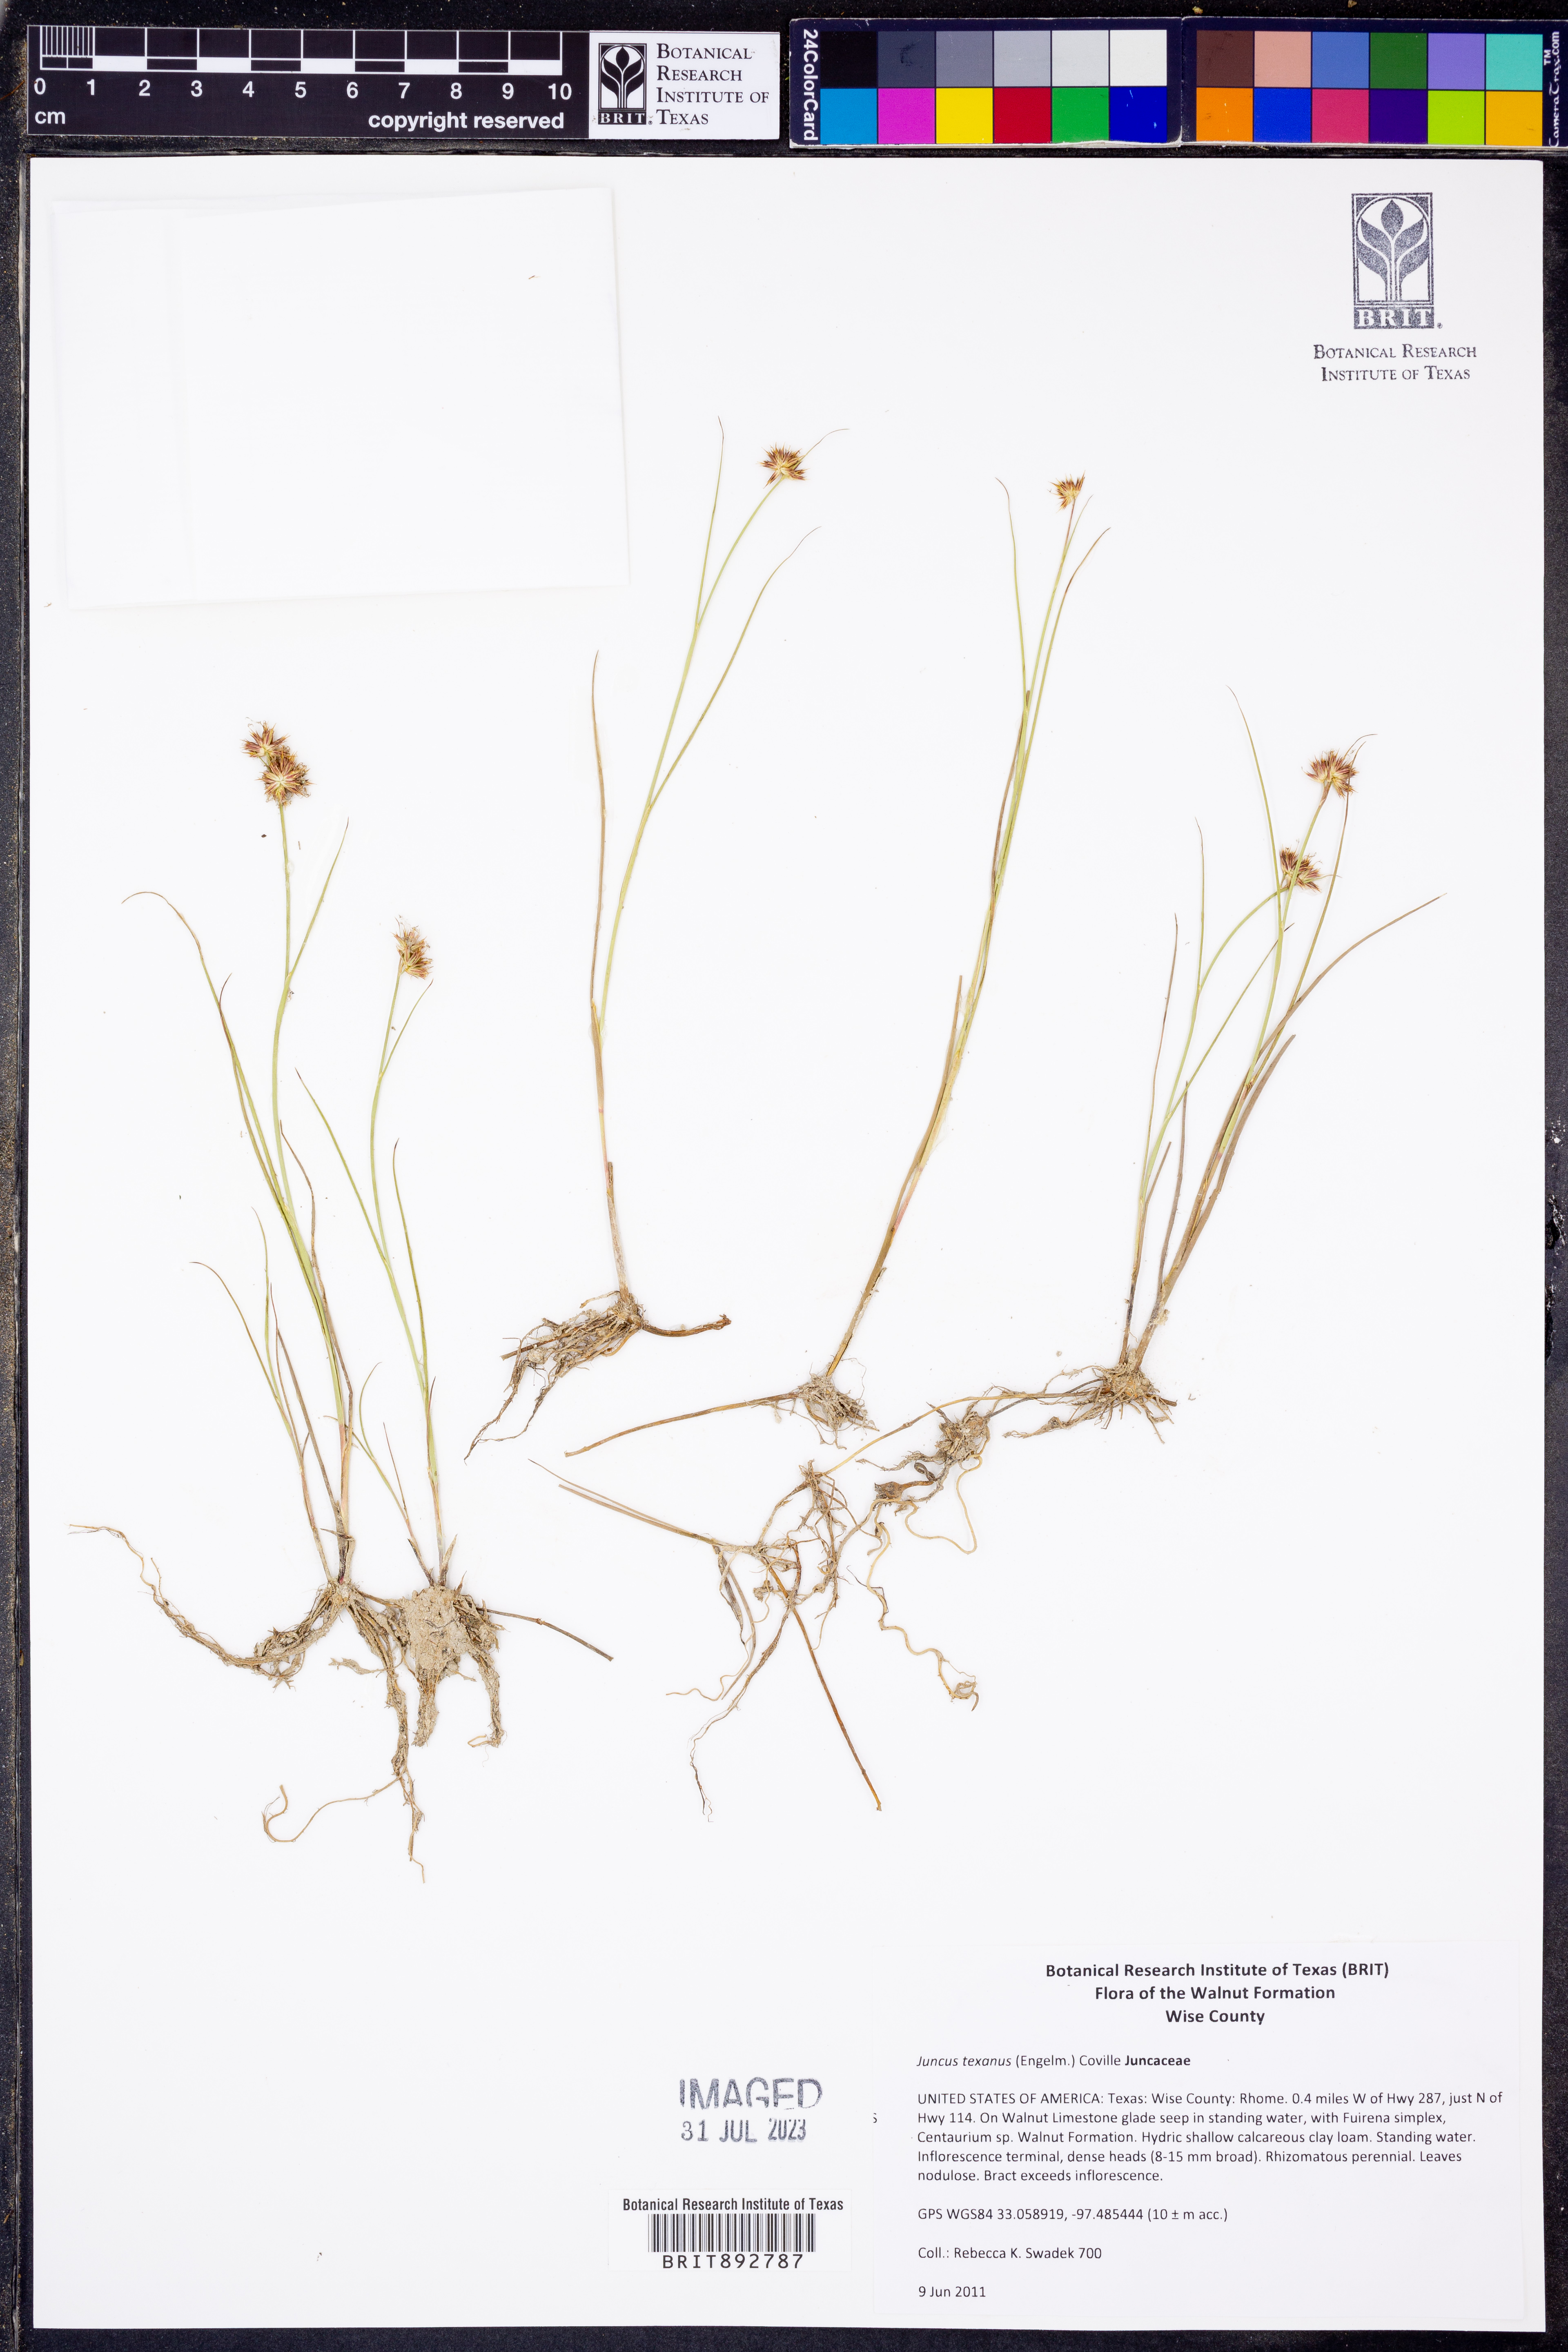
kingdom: Plantae
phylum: Tracheophyta
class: Liliopsida
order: Poales
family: Juncaceae
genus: Juncus
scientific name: Juncus texanus
